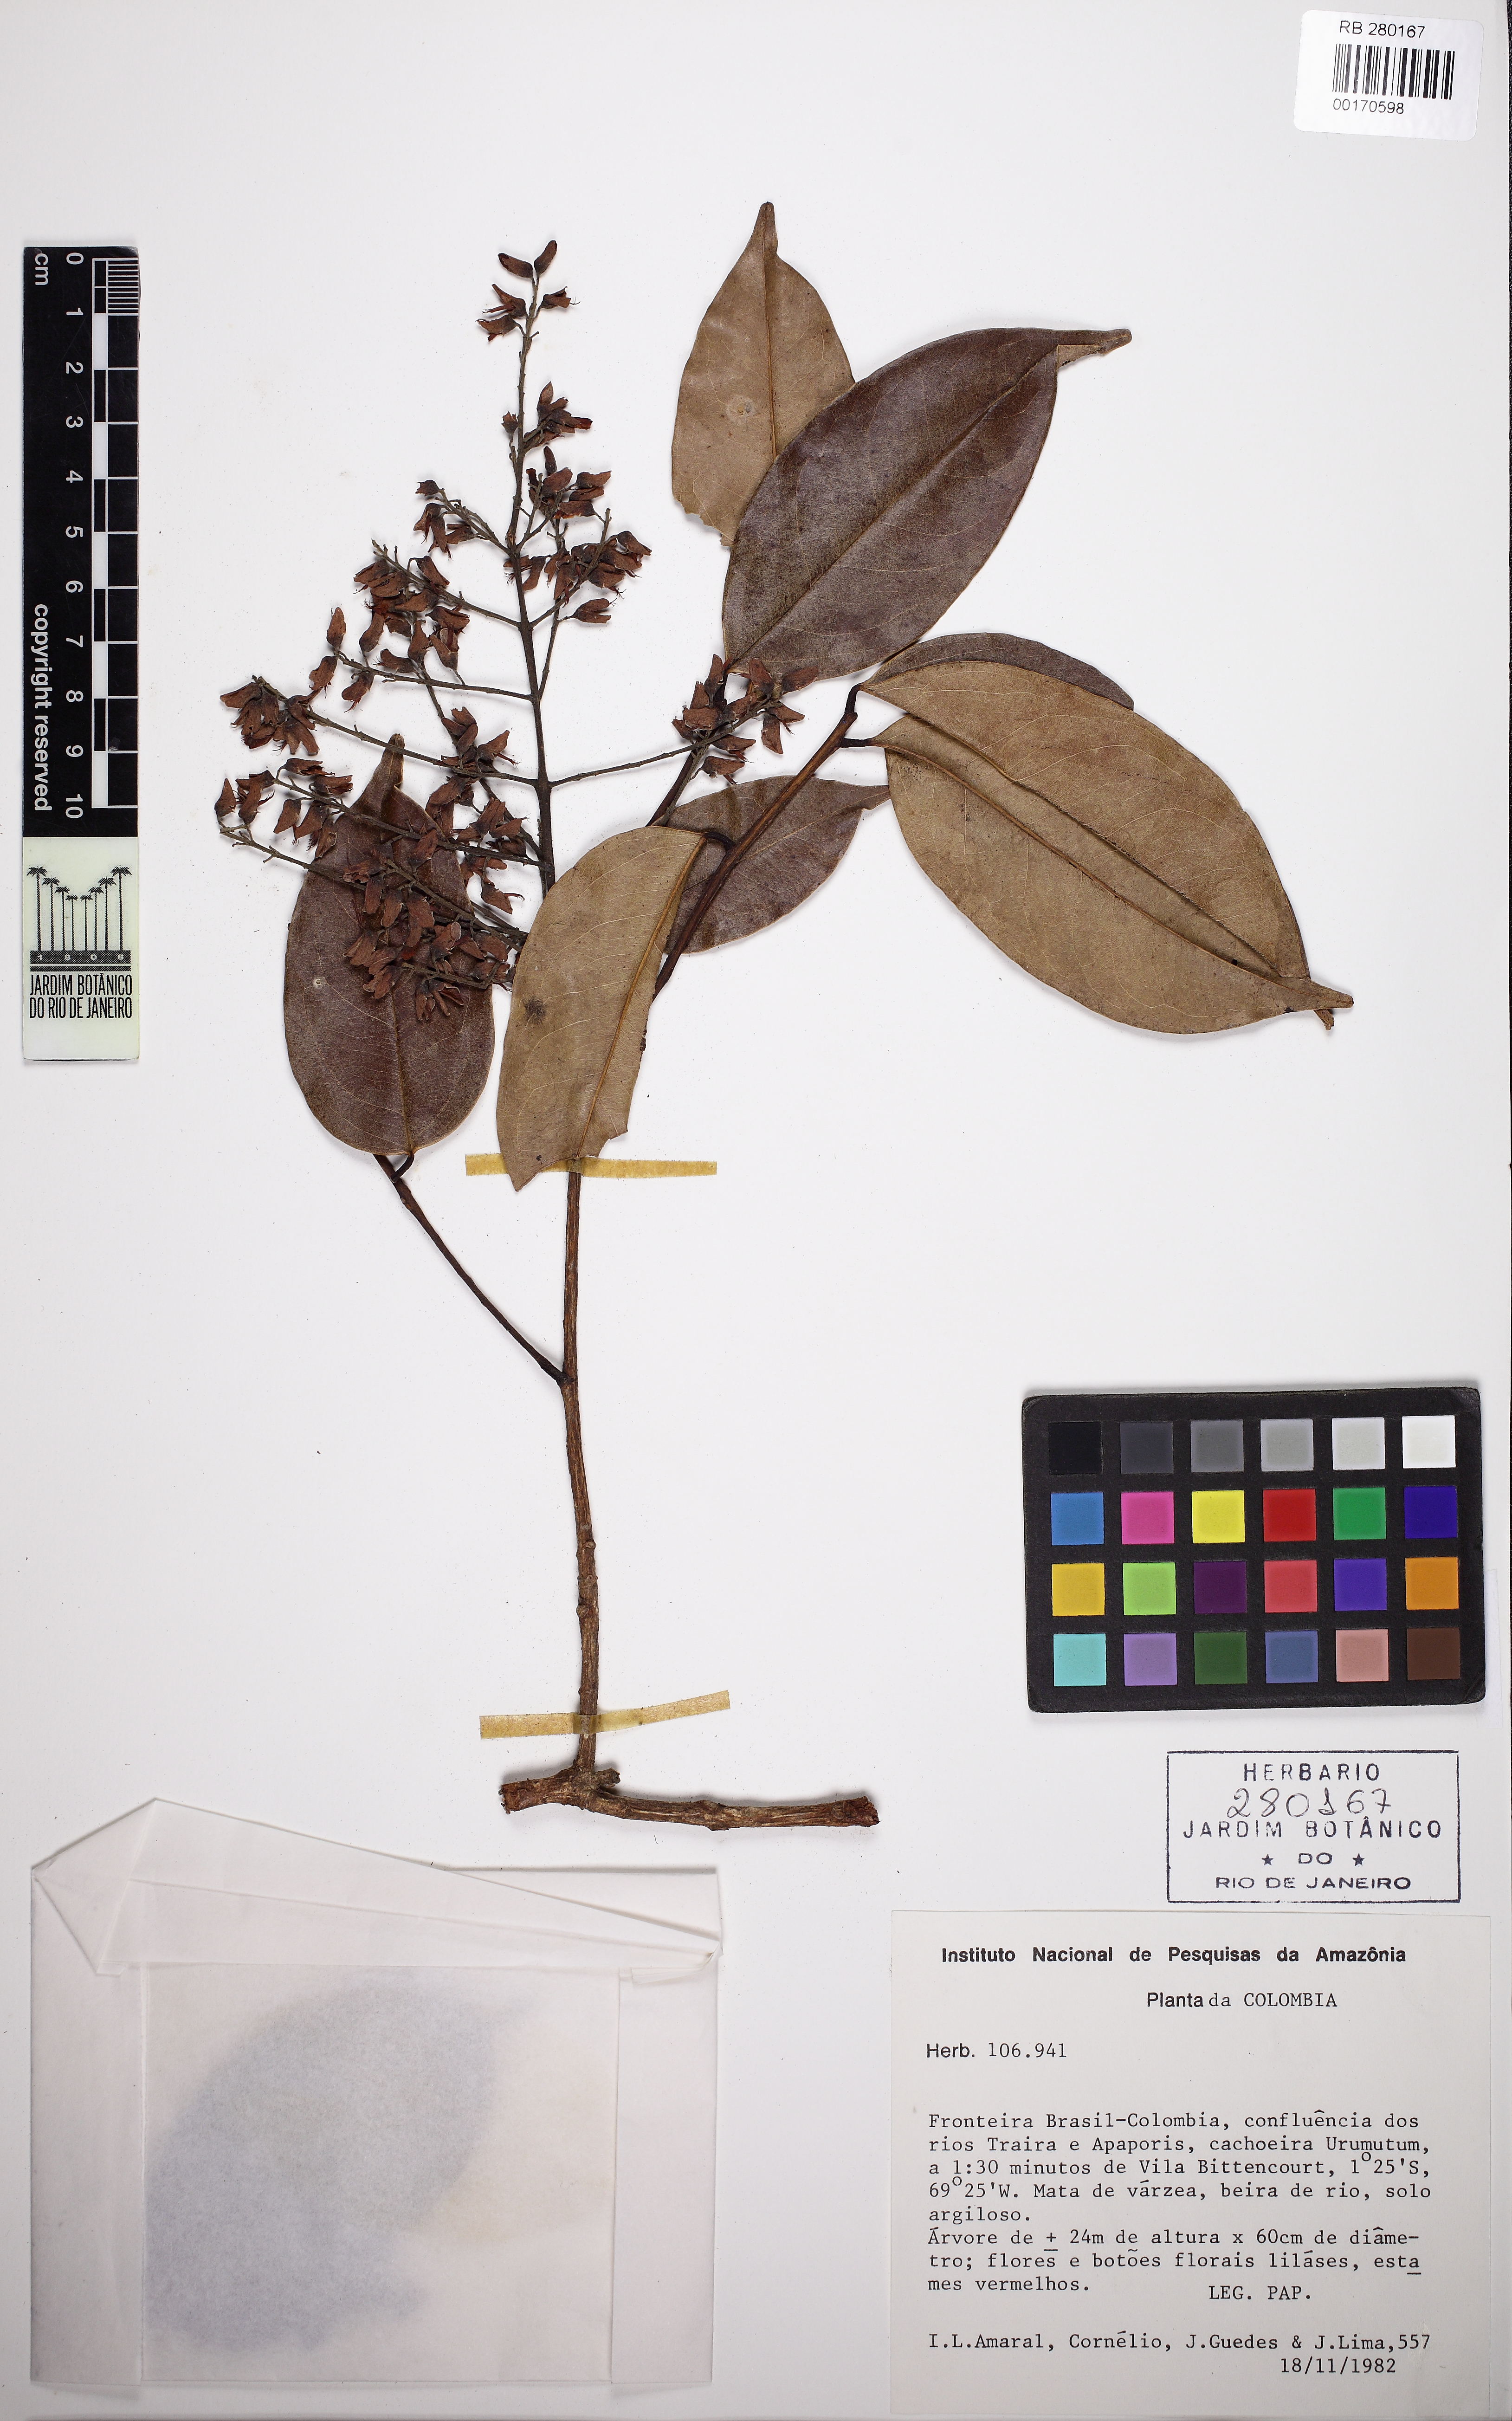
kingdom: Plantae
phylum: Tracheophyta
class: Magnoliopsida
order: Fabales
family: Fabaceae
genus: Taralea
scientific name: Taralea
